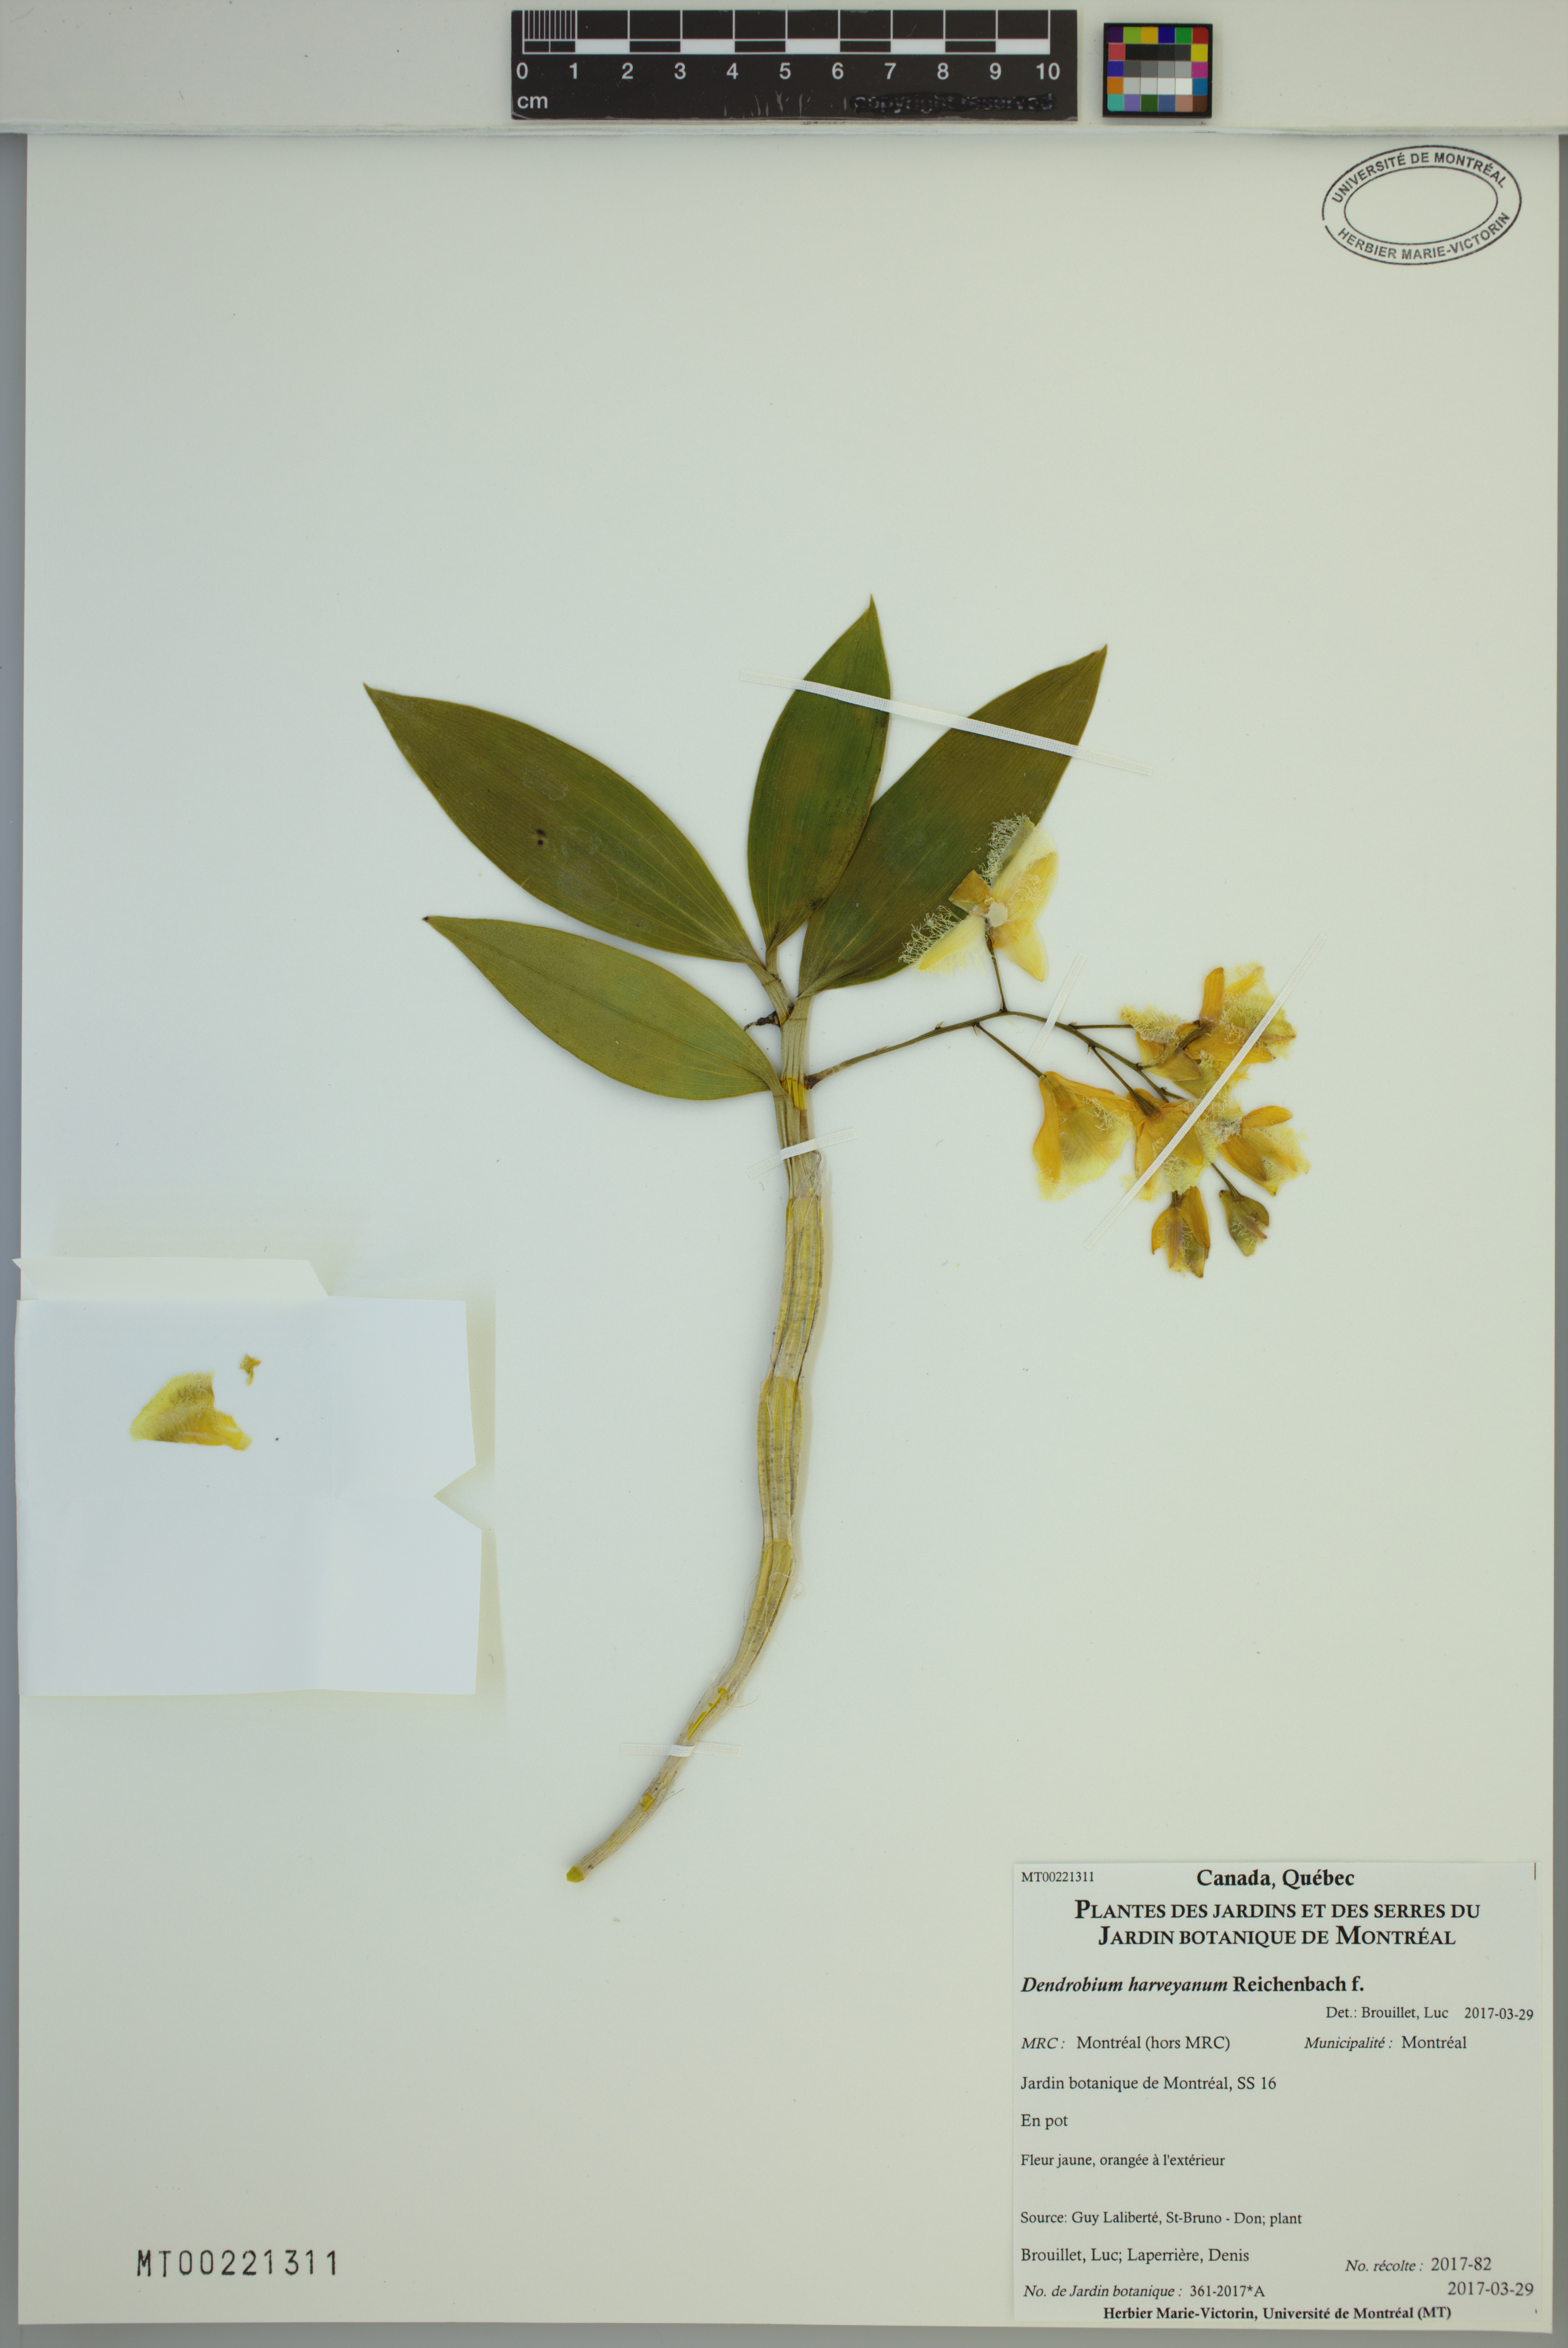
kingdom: Plantae
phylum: Tracheophyta
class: Liliopsida
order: Asparagales
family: Orchidaceae
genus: Dendrobium
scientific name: Dendrobium harveyanum
